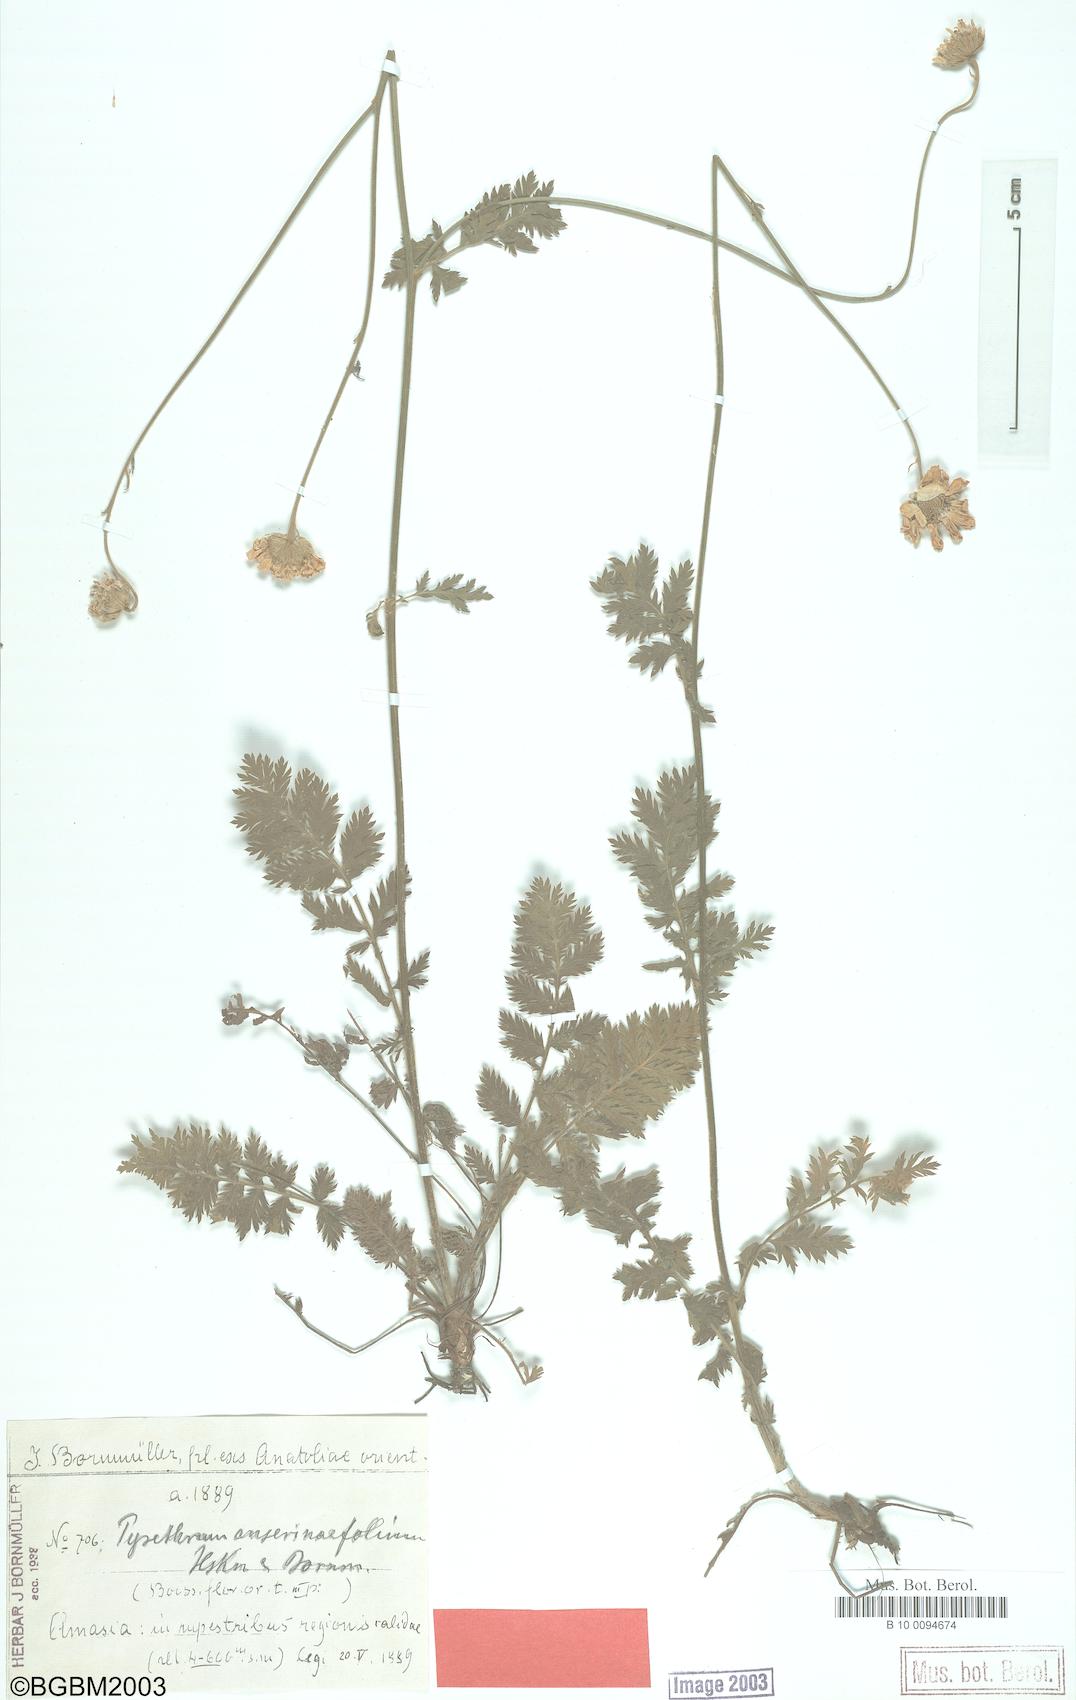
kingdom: Plantae
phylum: Tracheophyta
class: Magnoliopsida
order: Asterales
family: Asteraceae
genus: Tanacetum
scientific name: Tanacetum poteriifolium
